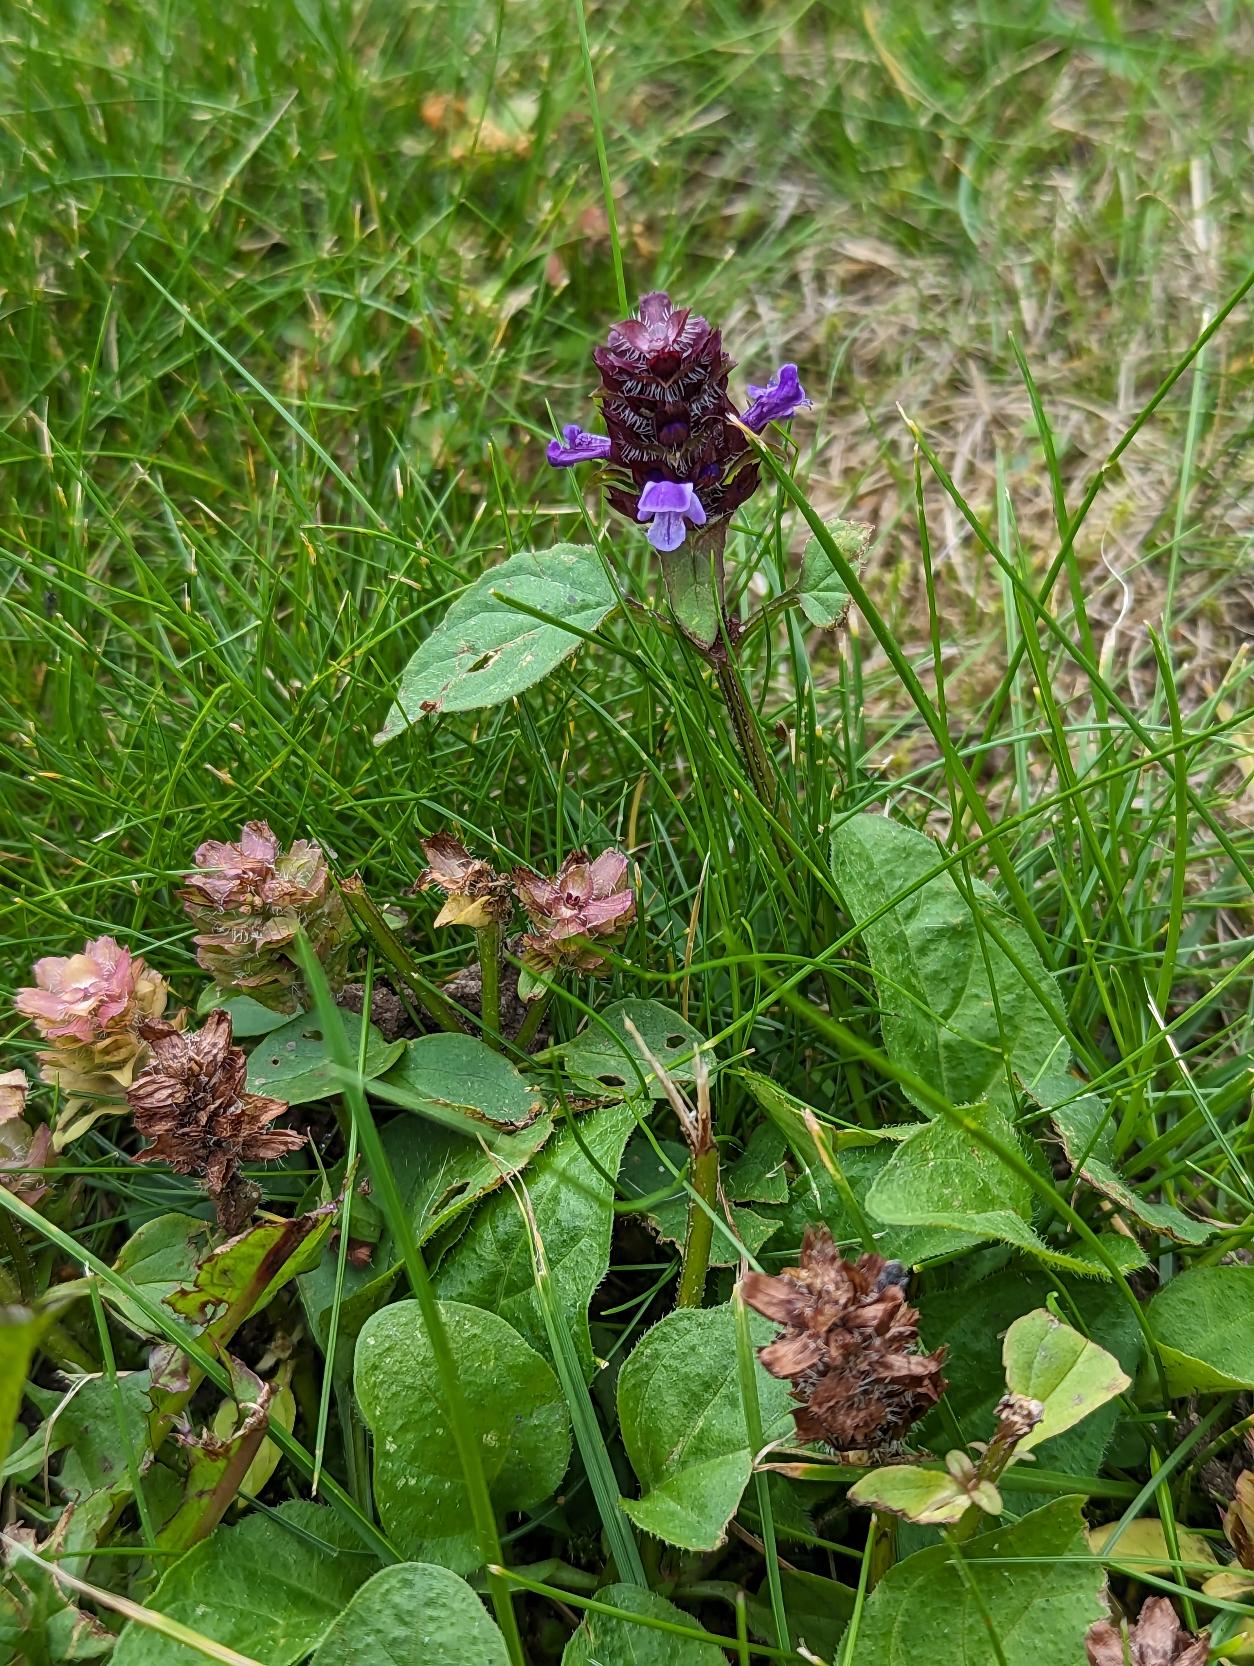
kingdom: Plantae
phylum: Tracheophyta
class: Magnoliopsida
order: Lamiales
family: Lamiaceae
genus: Prunella
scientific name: Prunella vulgaris
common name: Almindelig brunelle
